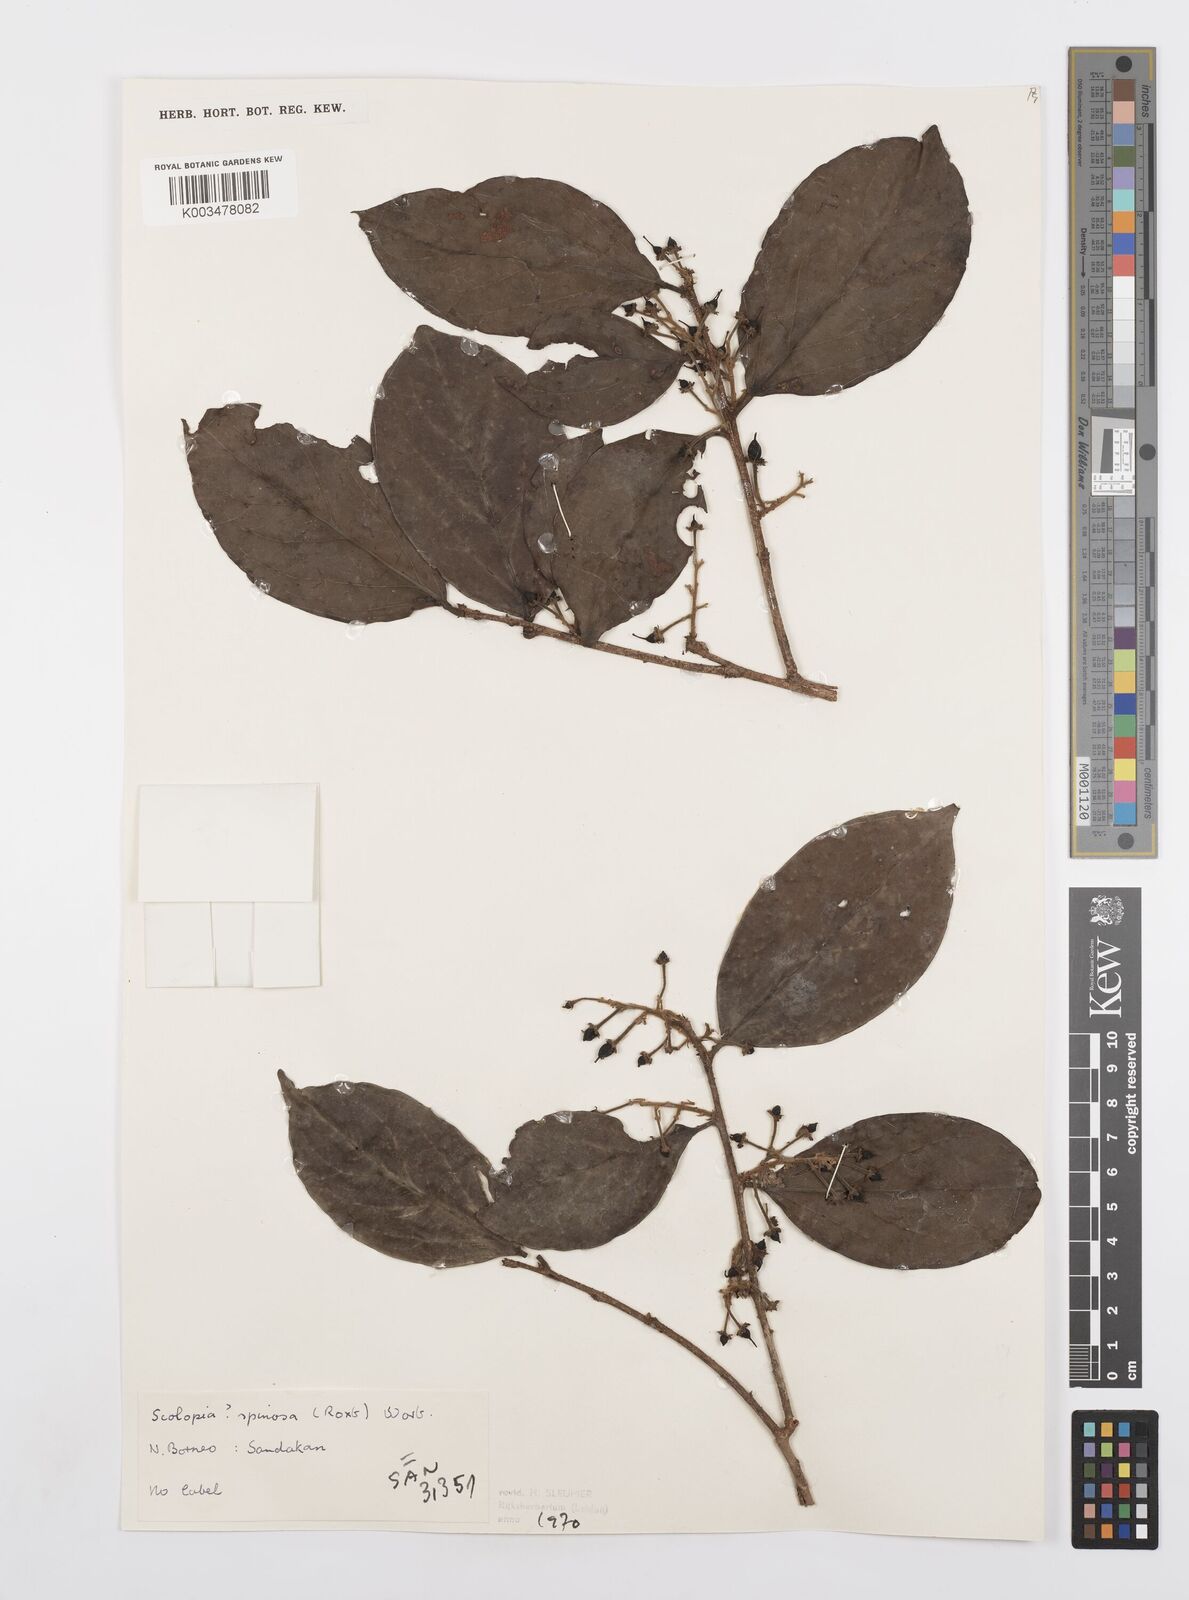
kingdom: Plantae
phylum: Tracheophyta
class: Magnoliopsida
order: Malpighiales
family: Salicaceae
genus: Scolopia
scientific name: Scolopia spinosa
